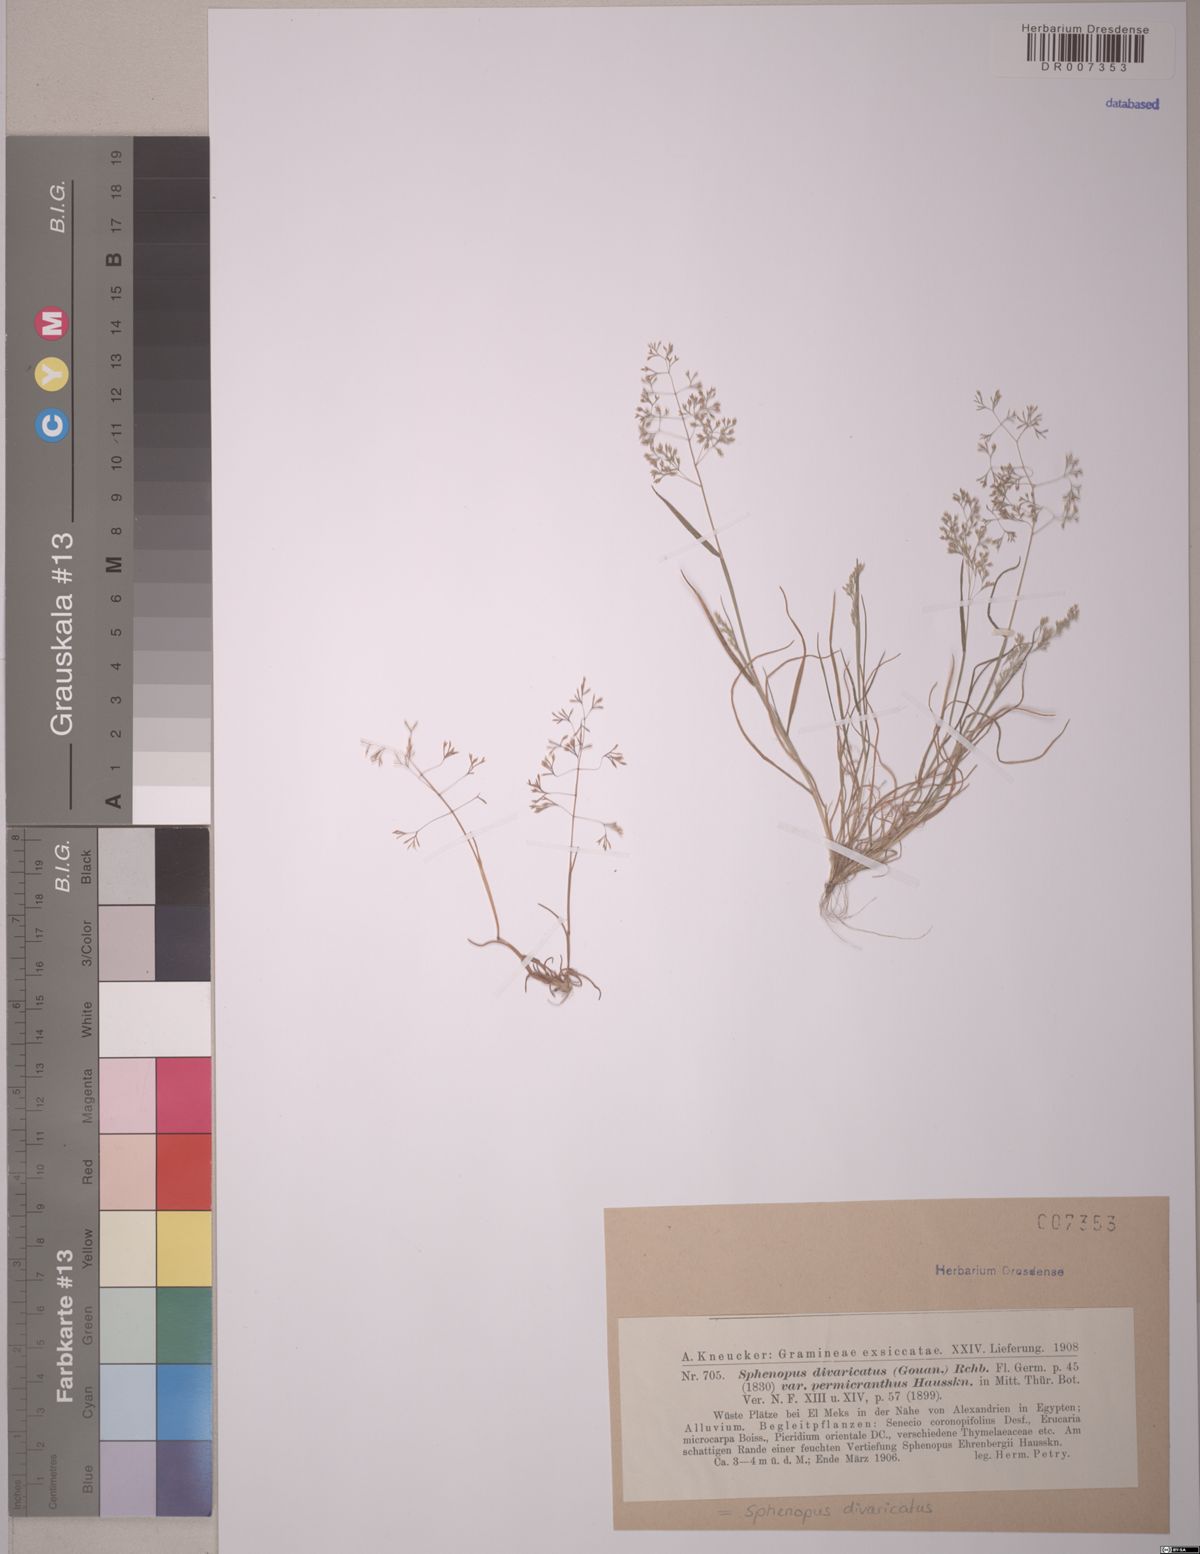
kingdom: Plantae
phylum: Tracheophyta
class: Liliopsida
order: Poales
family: Poaceae
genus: Sphenopus
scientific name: Sphenopus divaricatus
